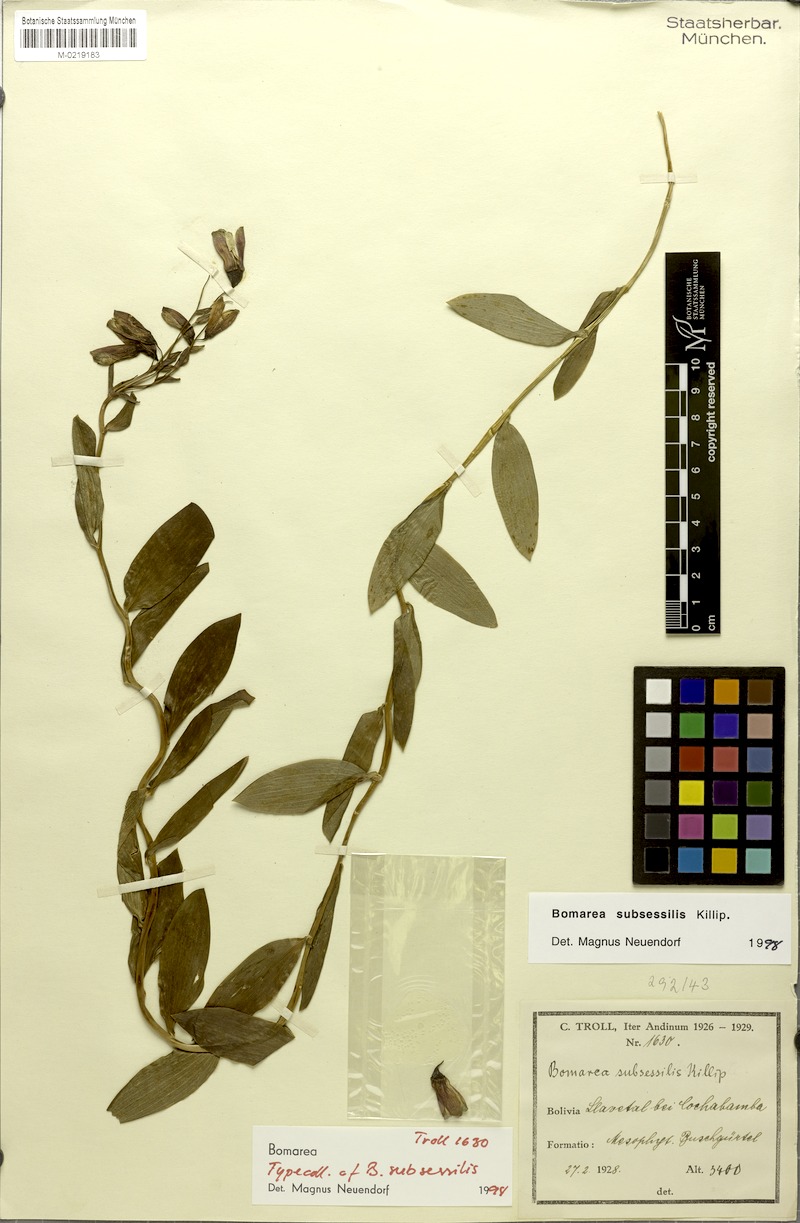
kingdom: Plantae
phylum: Tracheophyta
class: Liliopsida
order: Liliales
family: Alstroemeriaceae
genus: Bomarea
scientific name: Bomarea ovata
